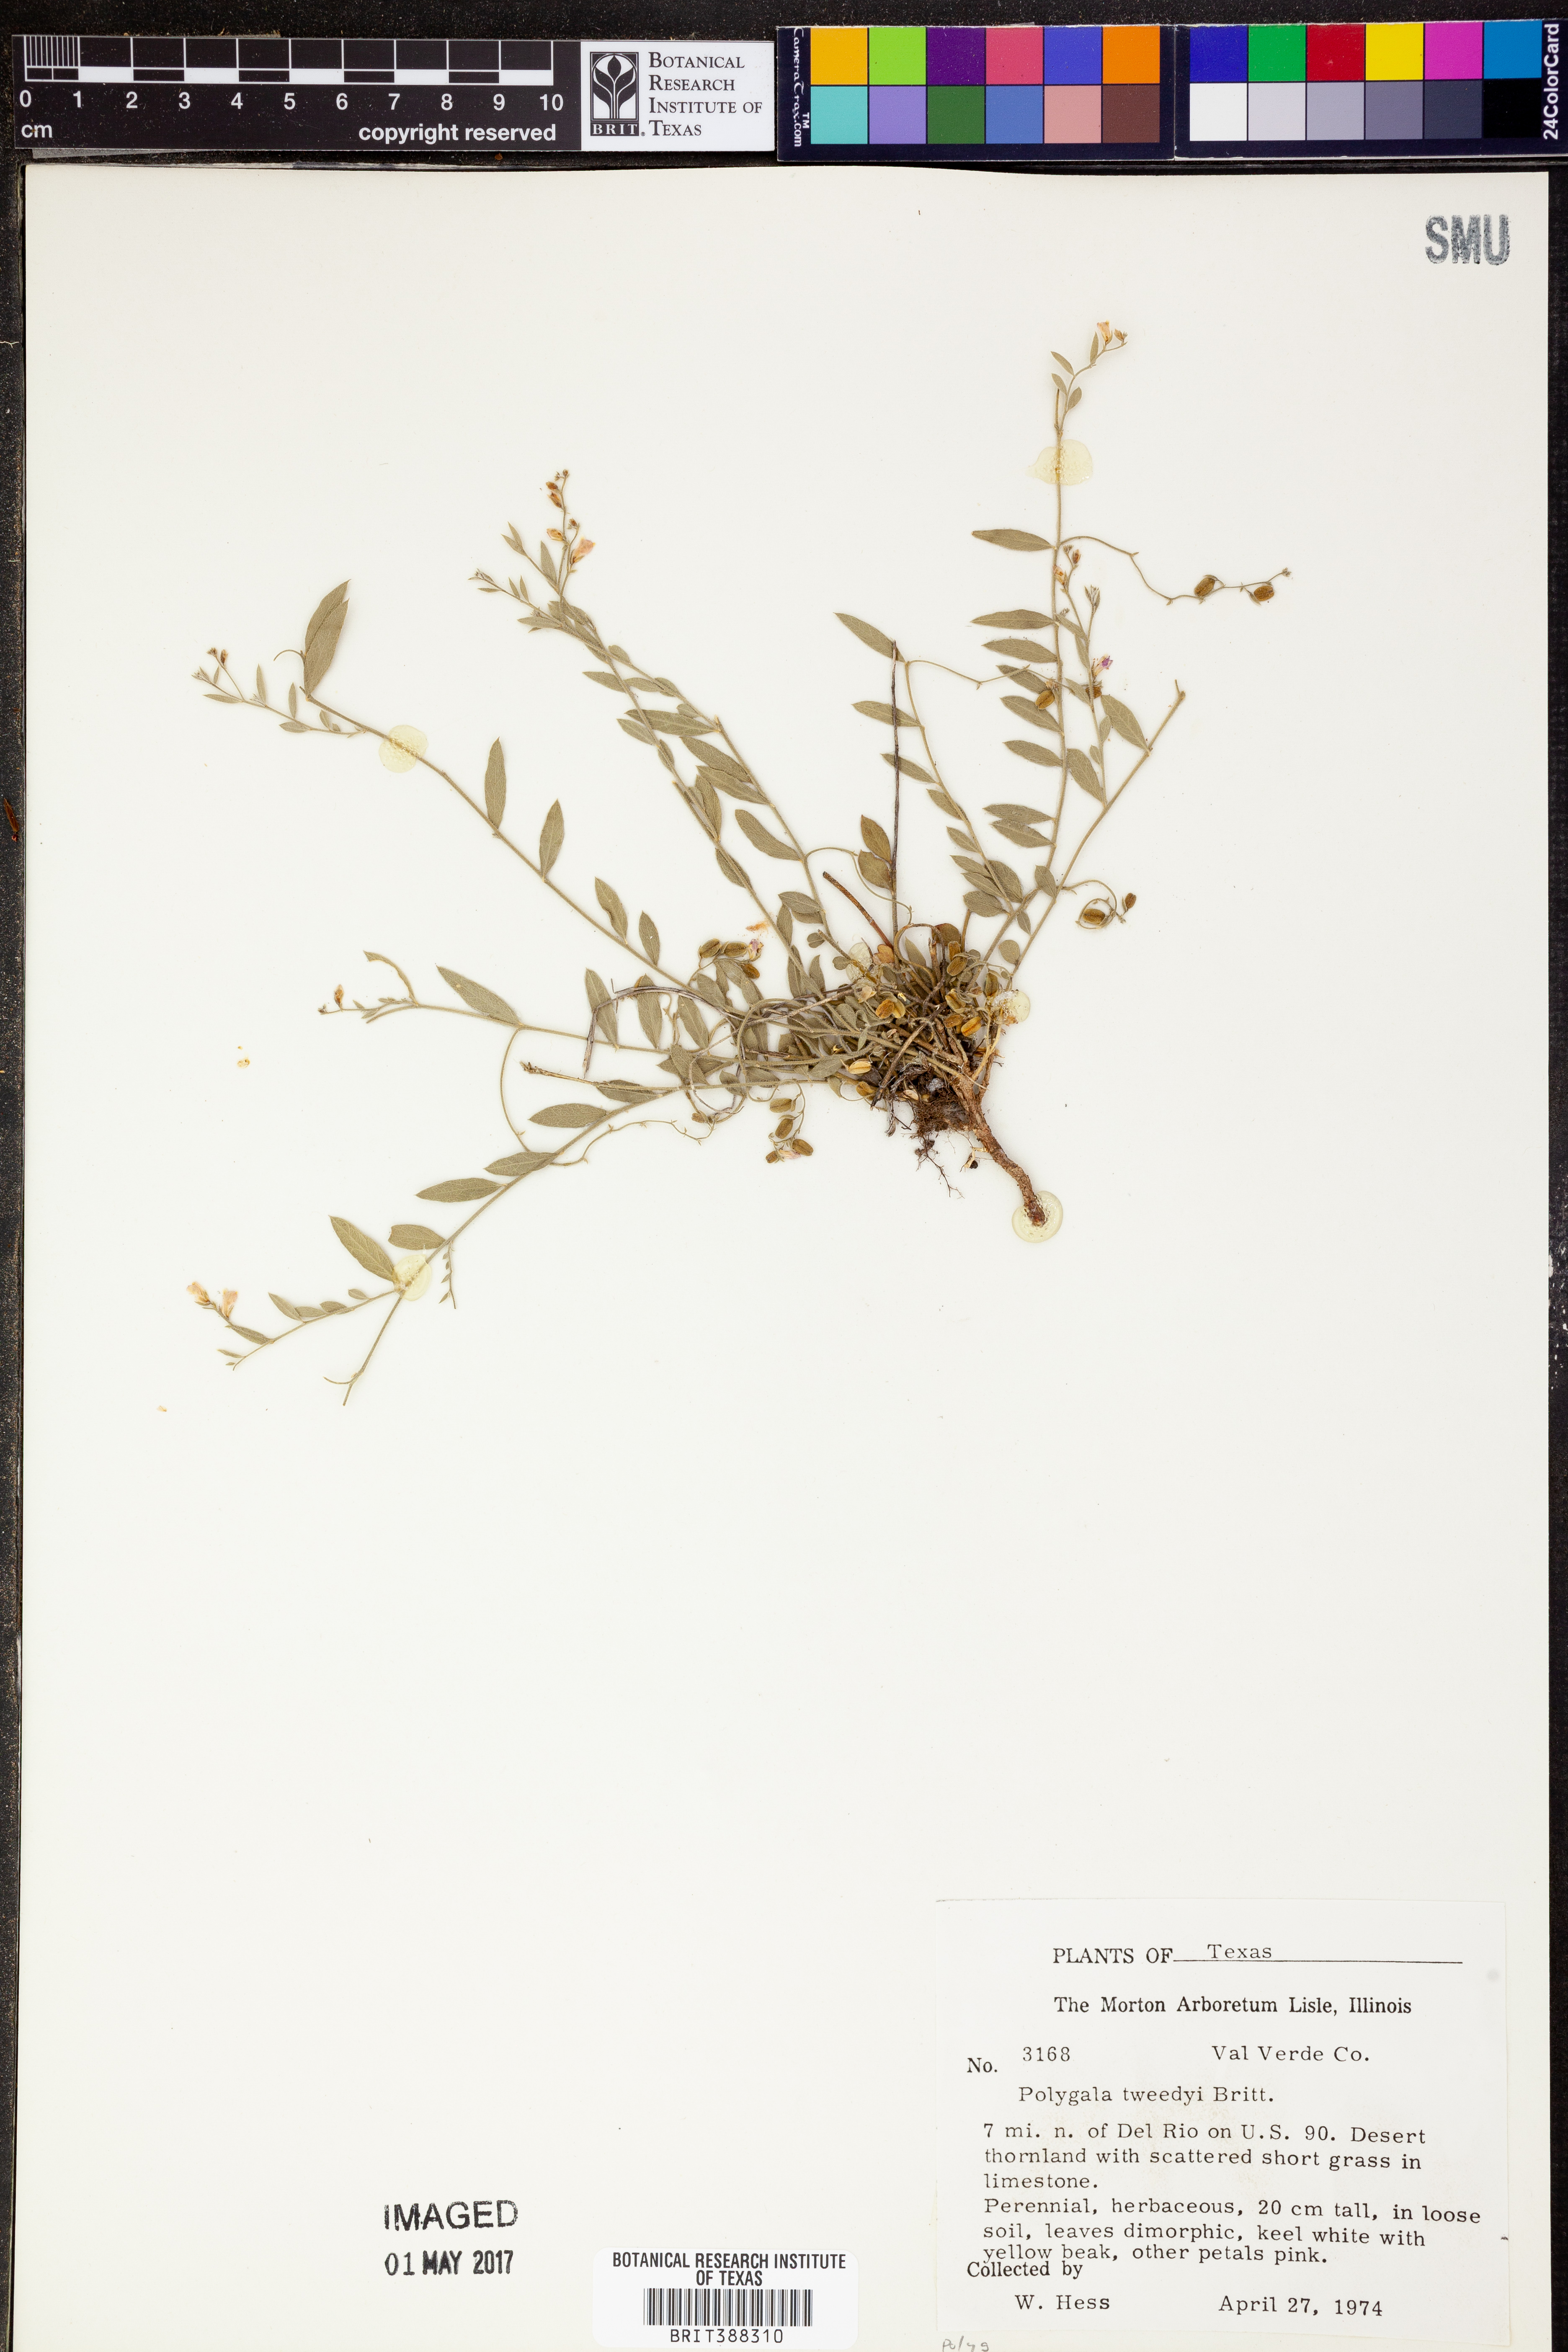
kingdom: Plantae
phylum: Tracheophyta
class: Magnoliopsida
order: Fabales
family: Polygalaceae
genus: Rhinotropis
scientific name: Rhinotropis lindheimeri
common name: Shrubby milkwort
